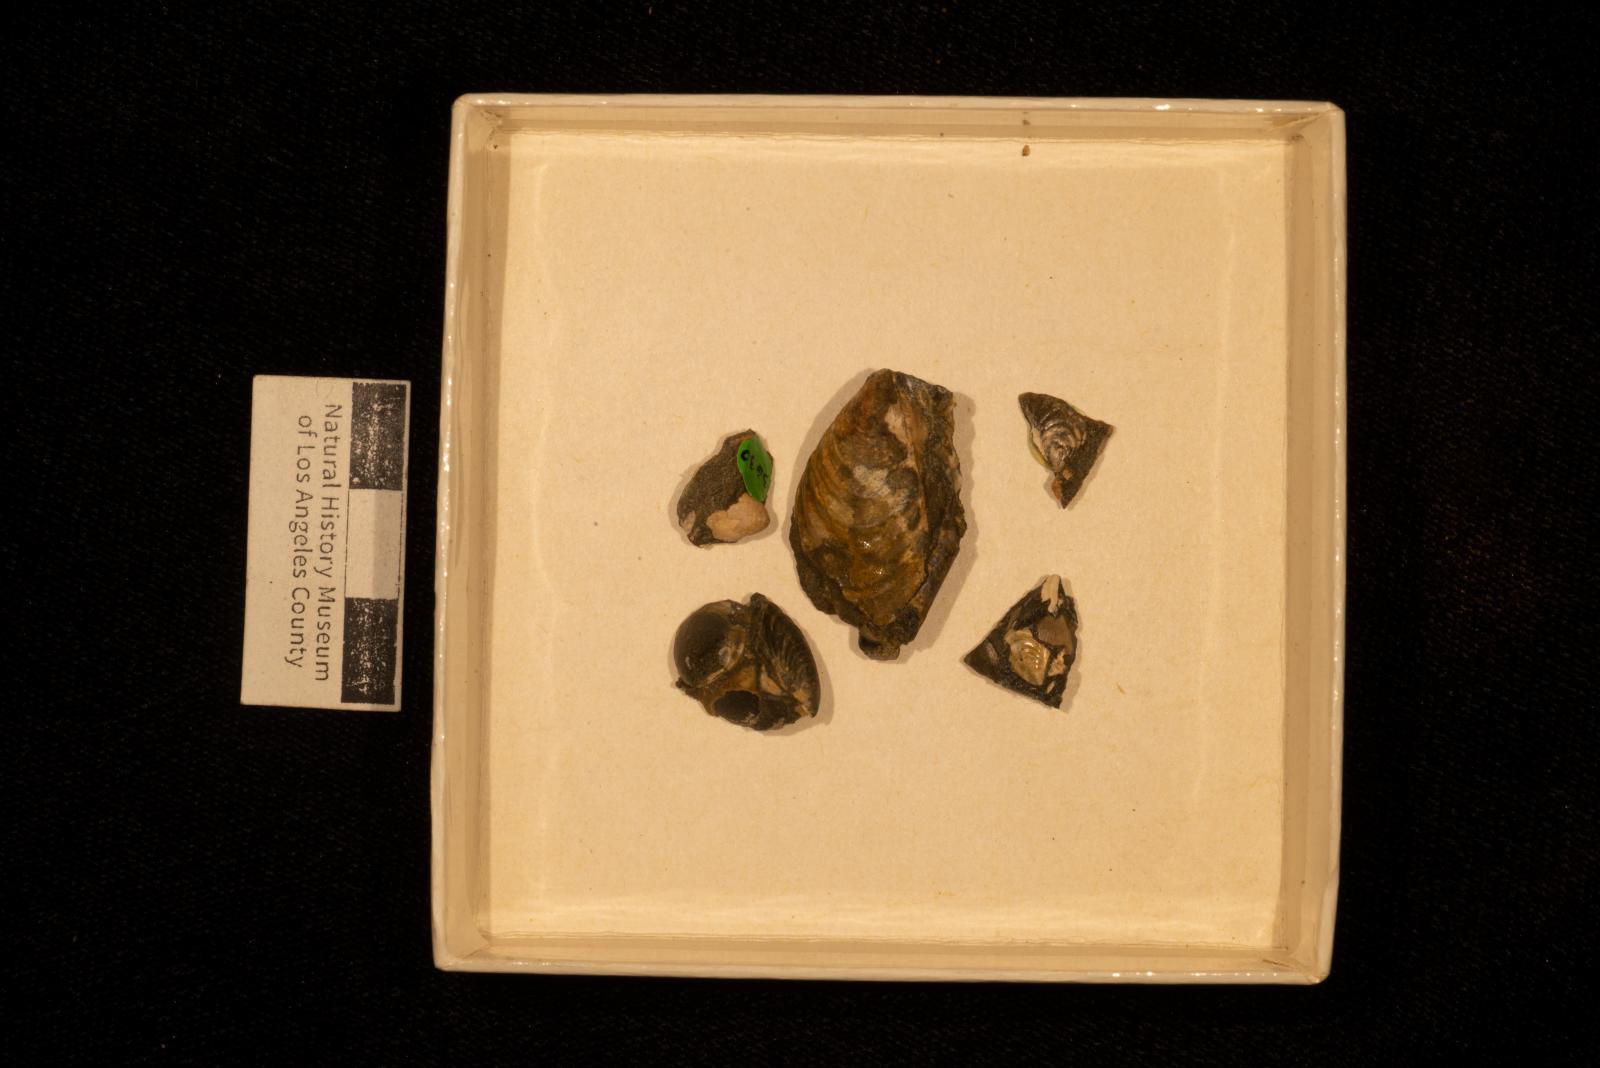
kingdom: Animalia
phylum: Mollusca
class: Bivalvia
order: Myalinida
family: Inoceramidae
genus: Inoceramus
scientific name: Inoceramus
